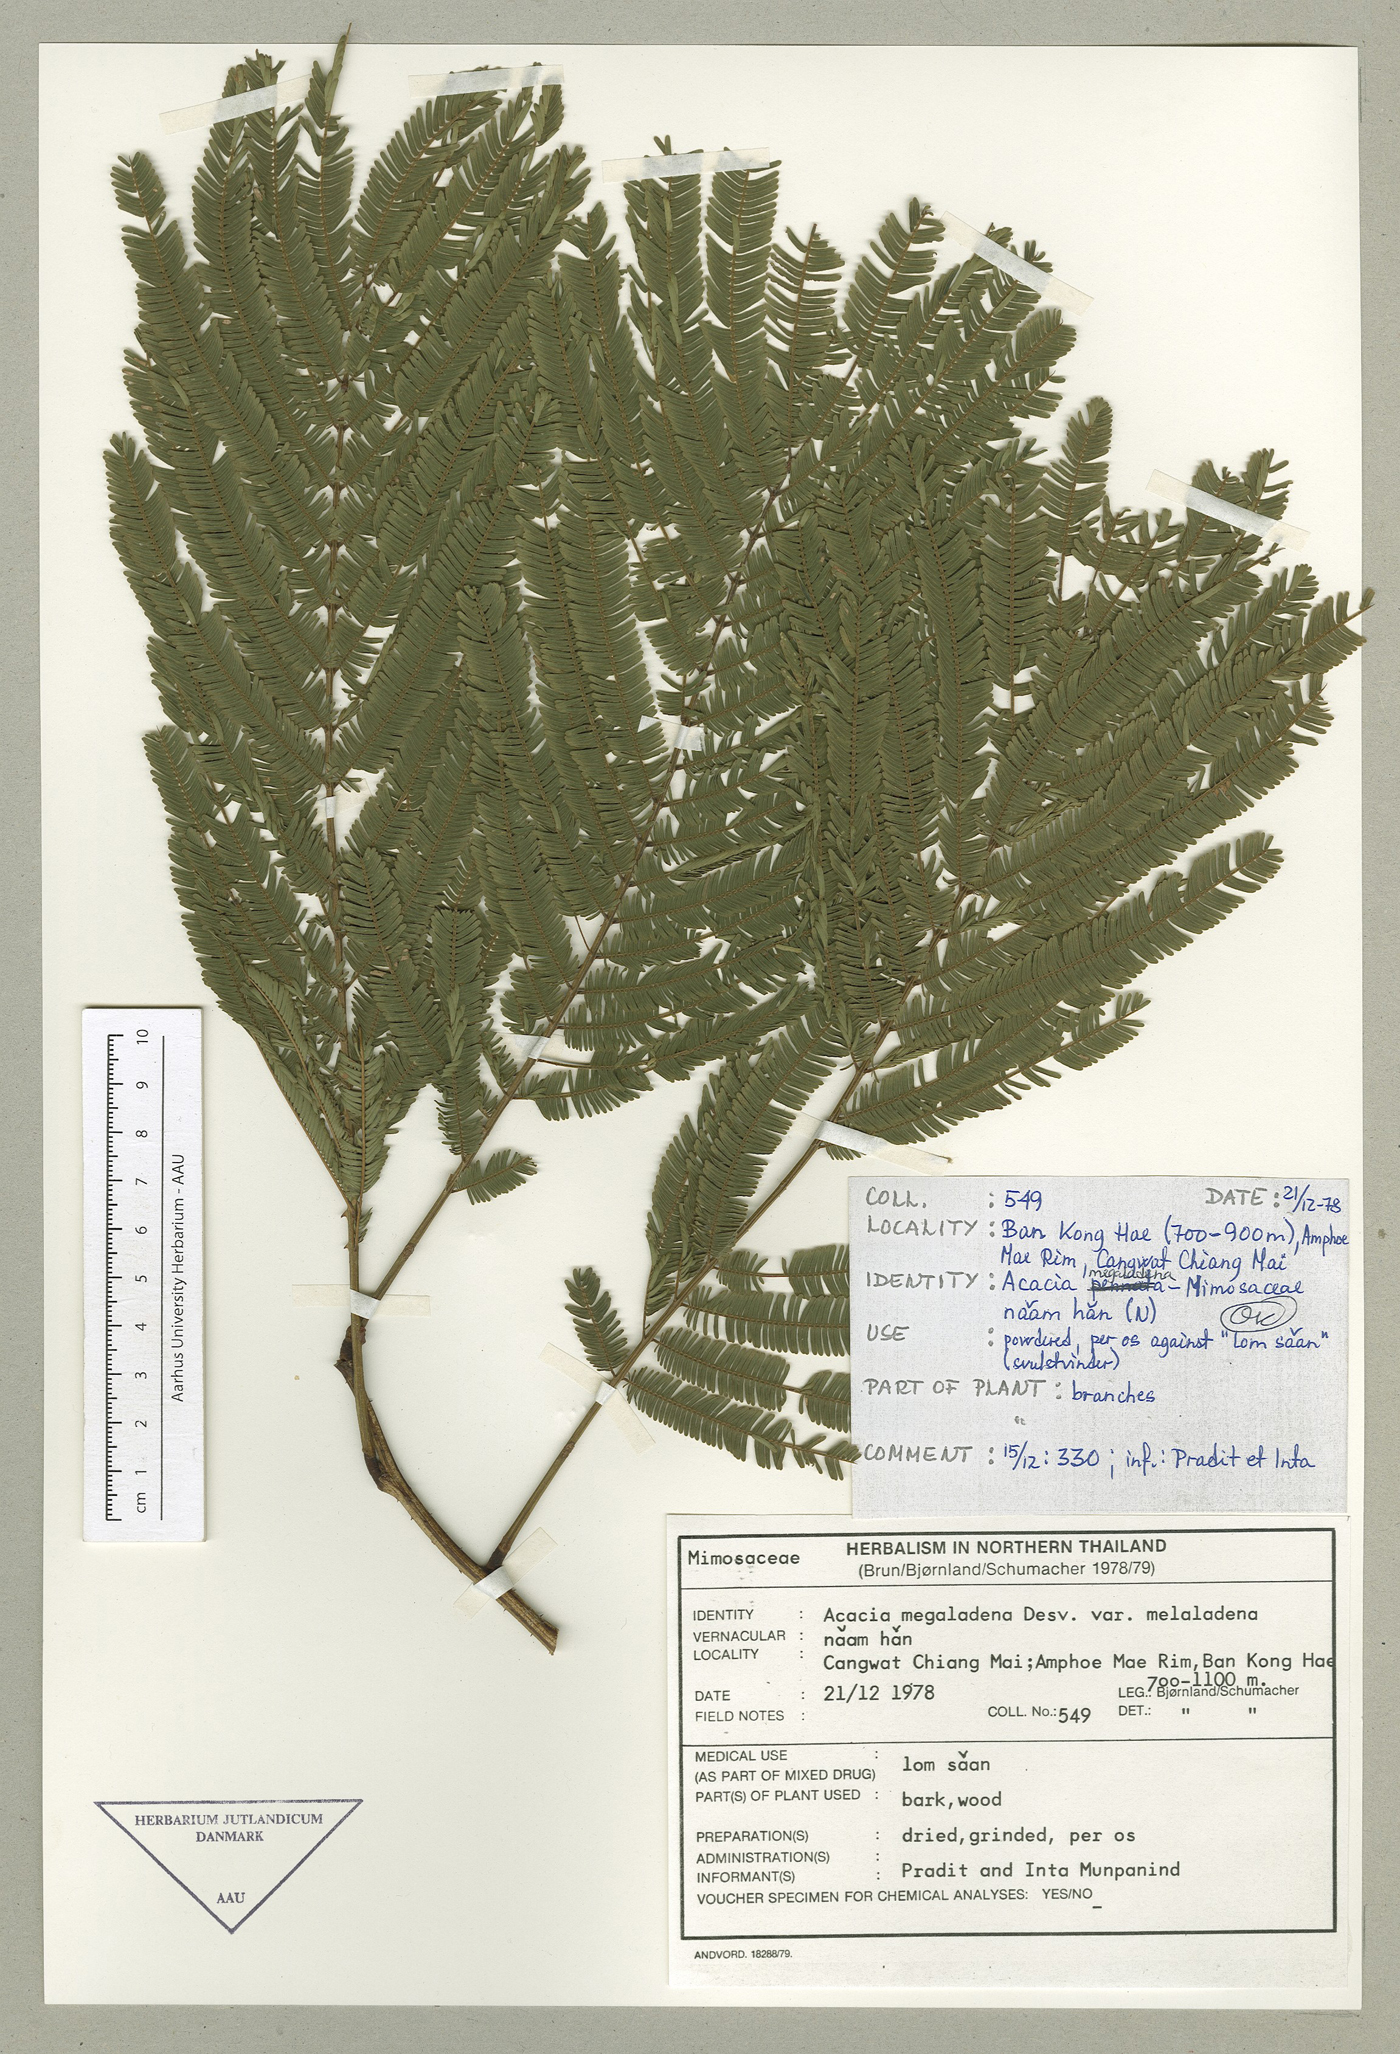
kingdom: Plantae
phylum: Tracheophyta
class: Magnoliopsida
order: Fabales
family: Fabaceae
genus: Senegalia
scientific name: Senegalia megaladena
